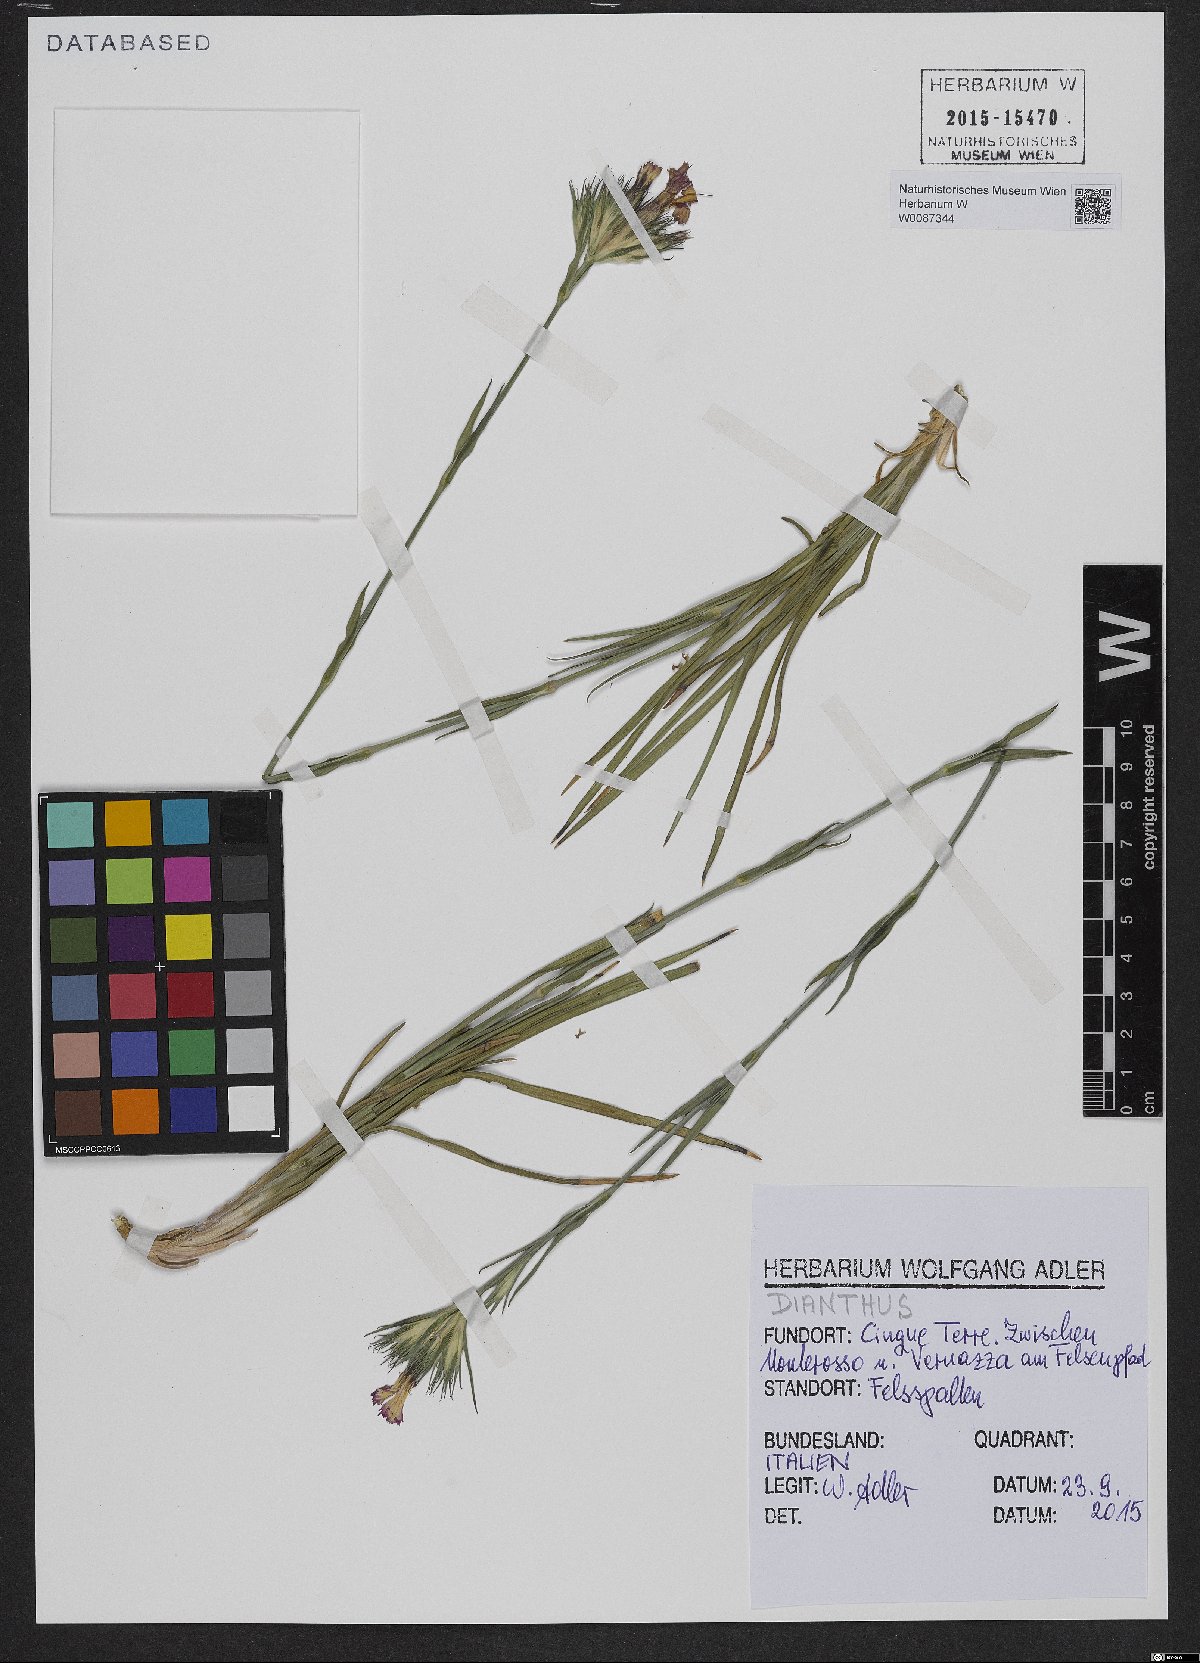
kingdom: Plantae
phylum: Tracheophyta
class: Magnoliopsida
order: Caryophyllales
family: Caryophyllaceae
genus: Dianthus
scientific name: Dianthus
